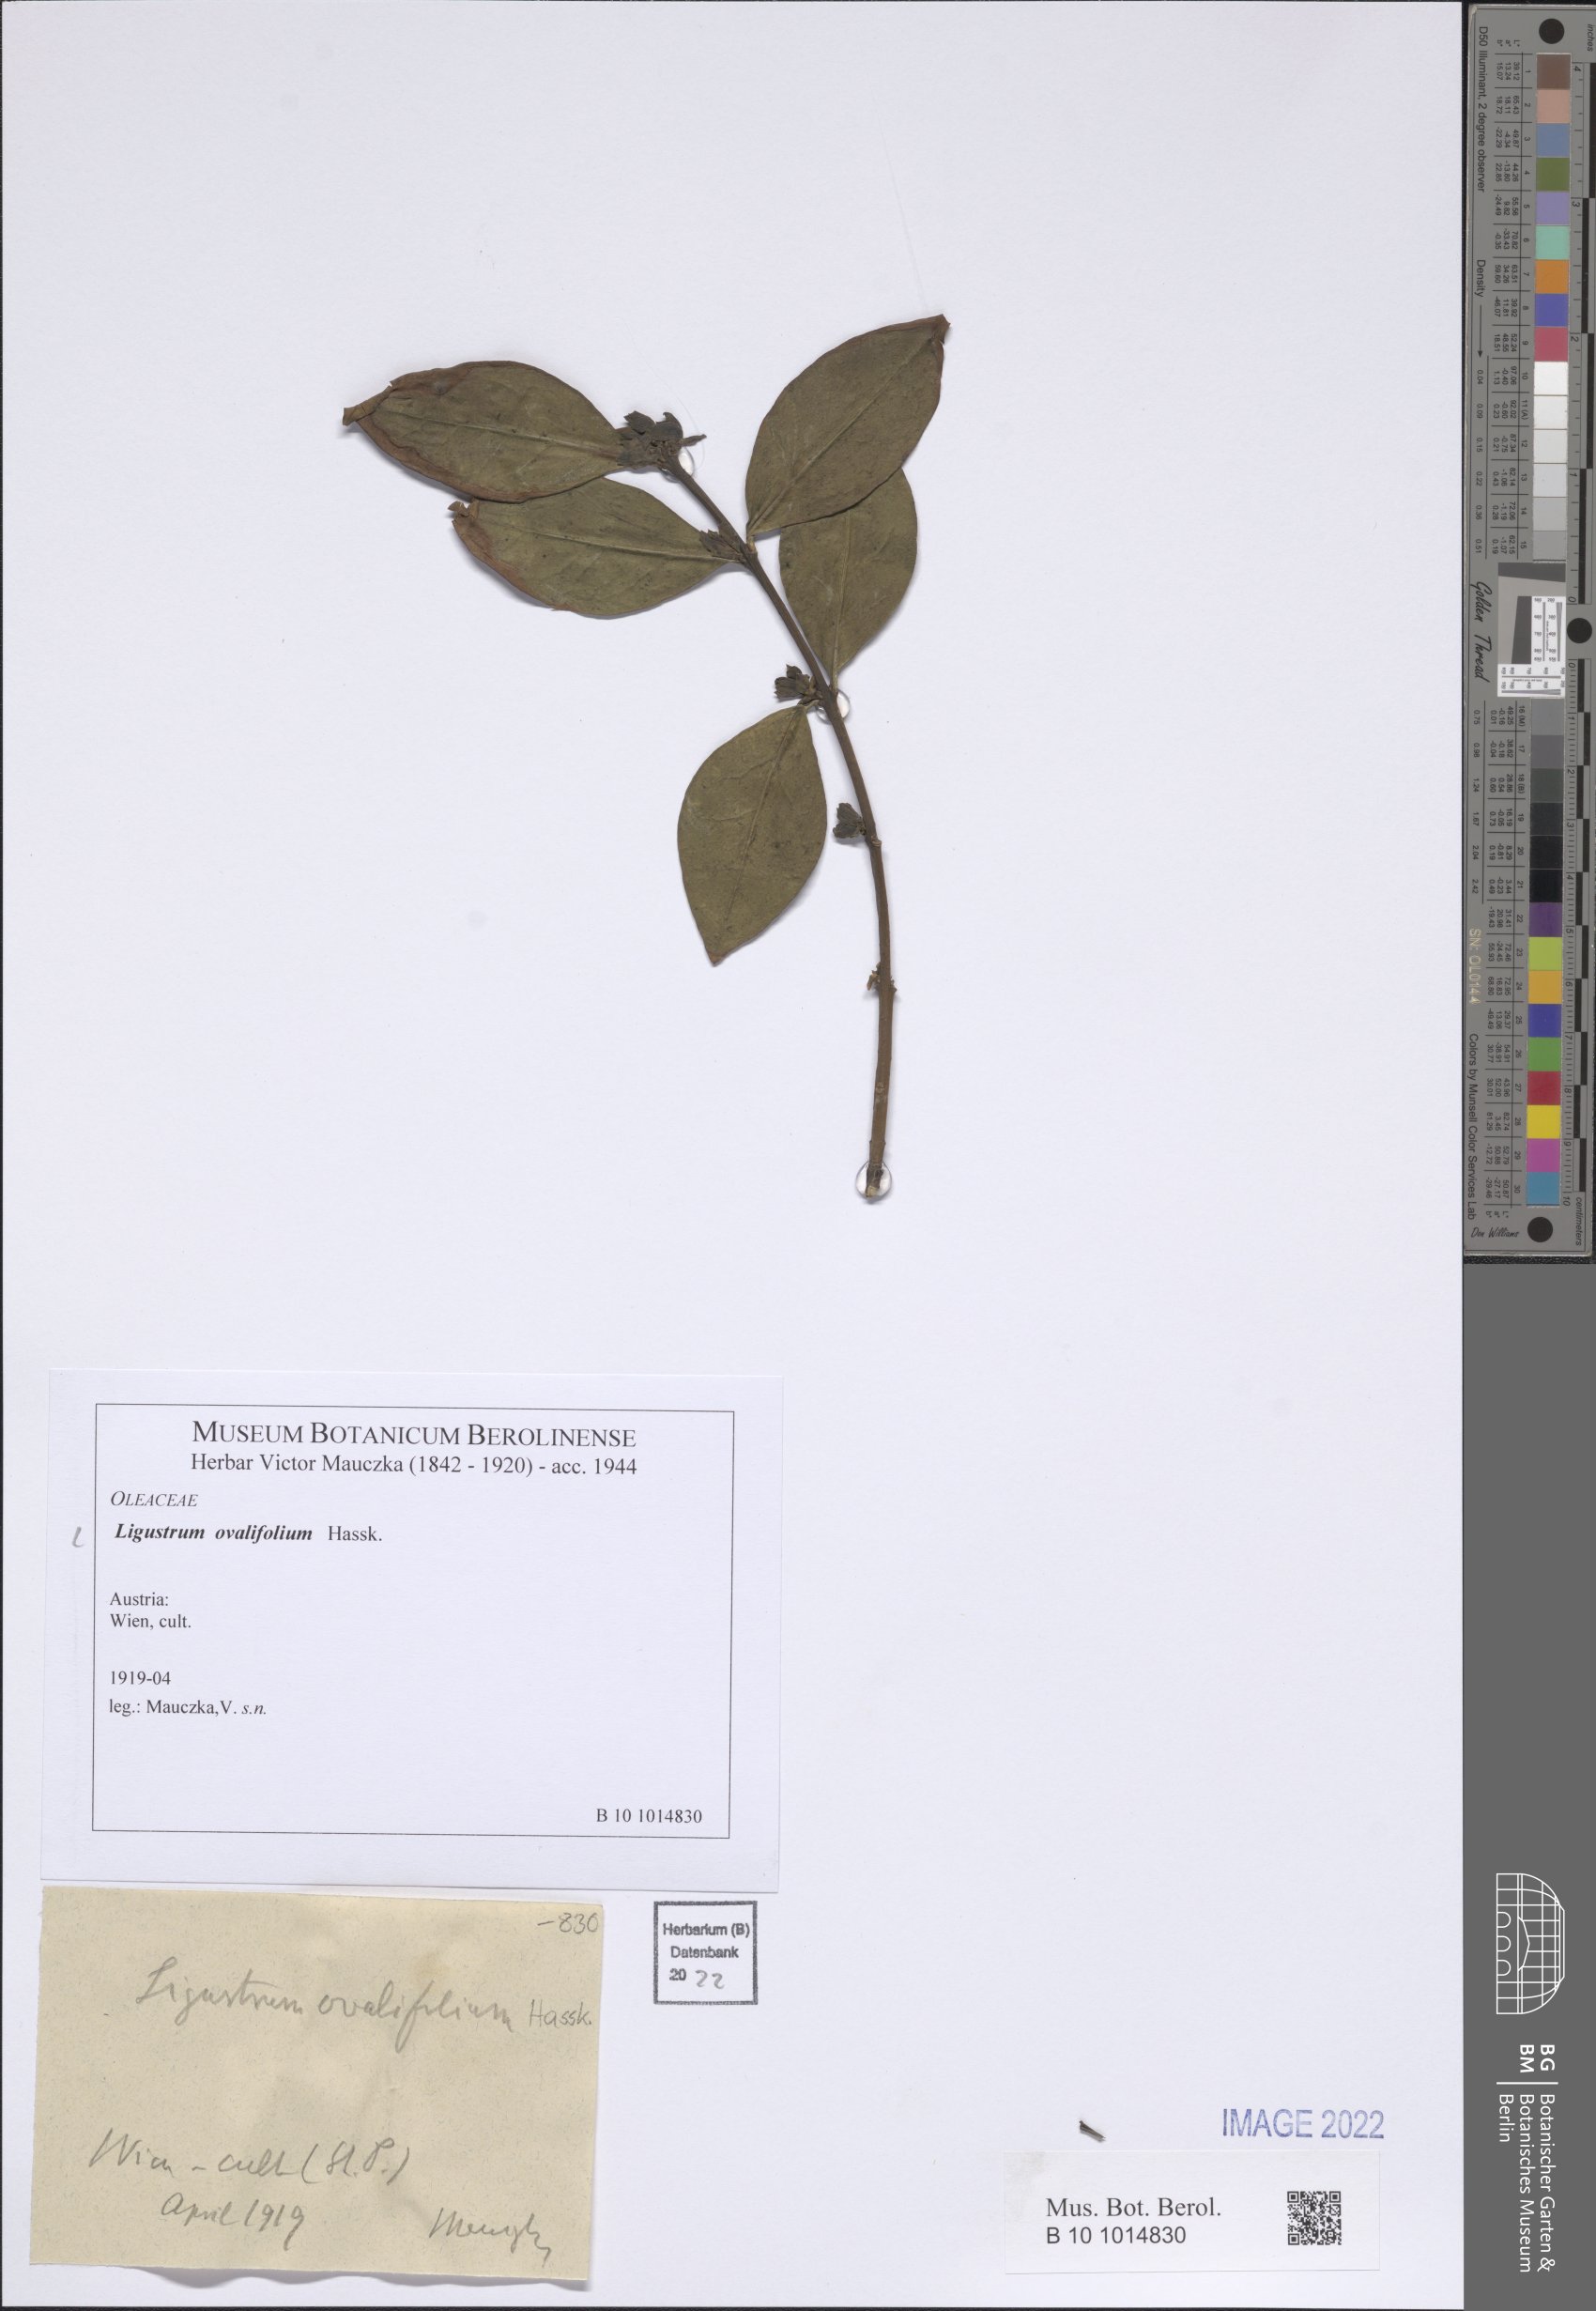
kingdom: Plantae
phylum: Tracheophyta
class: Magnoliopsida
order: Lamiales
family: Oleaceae
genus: Ligustrum
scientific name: Ligustrum ovalifolium
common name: California privet
